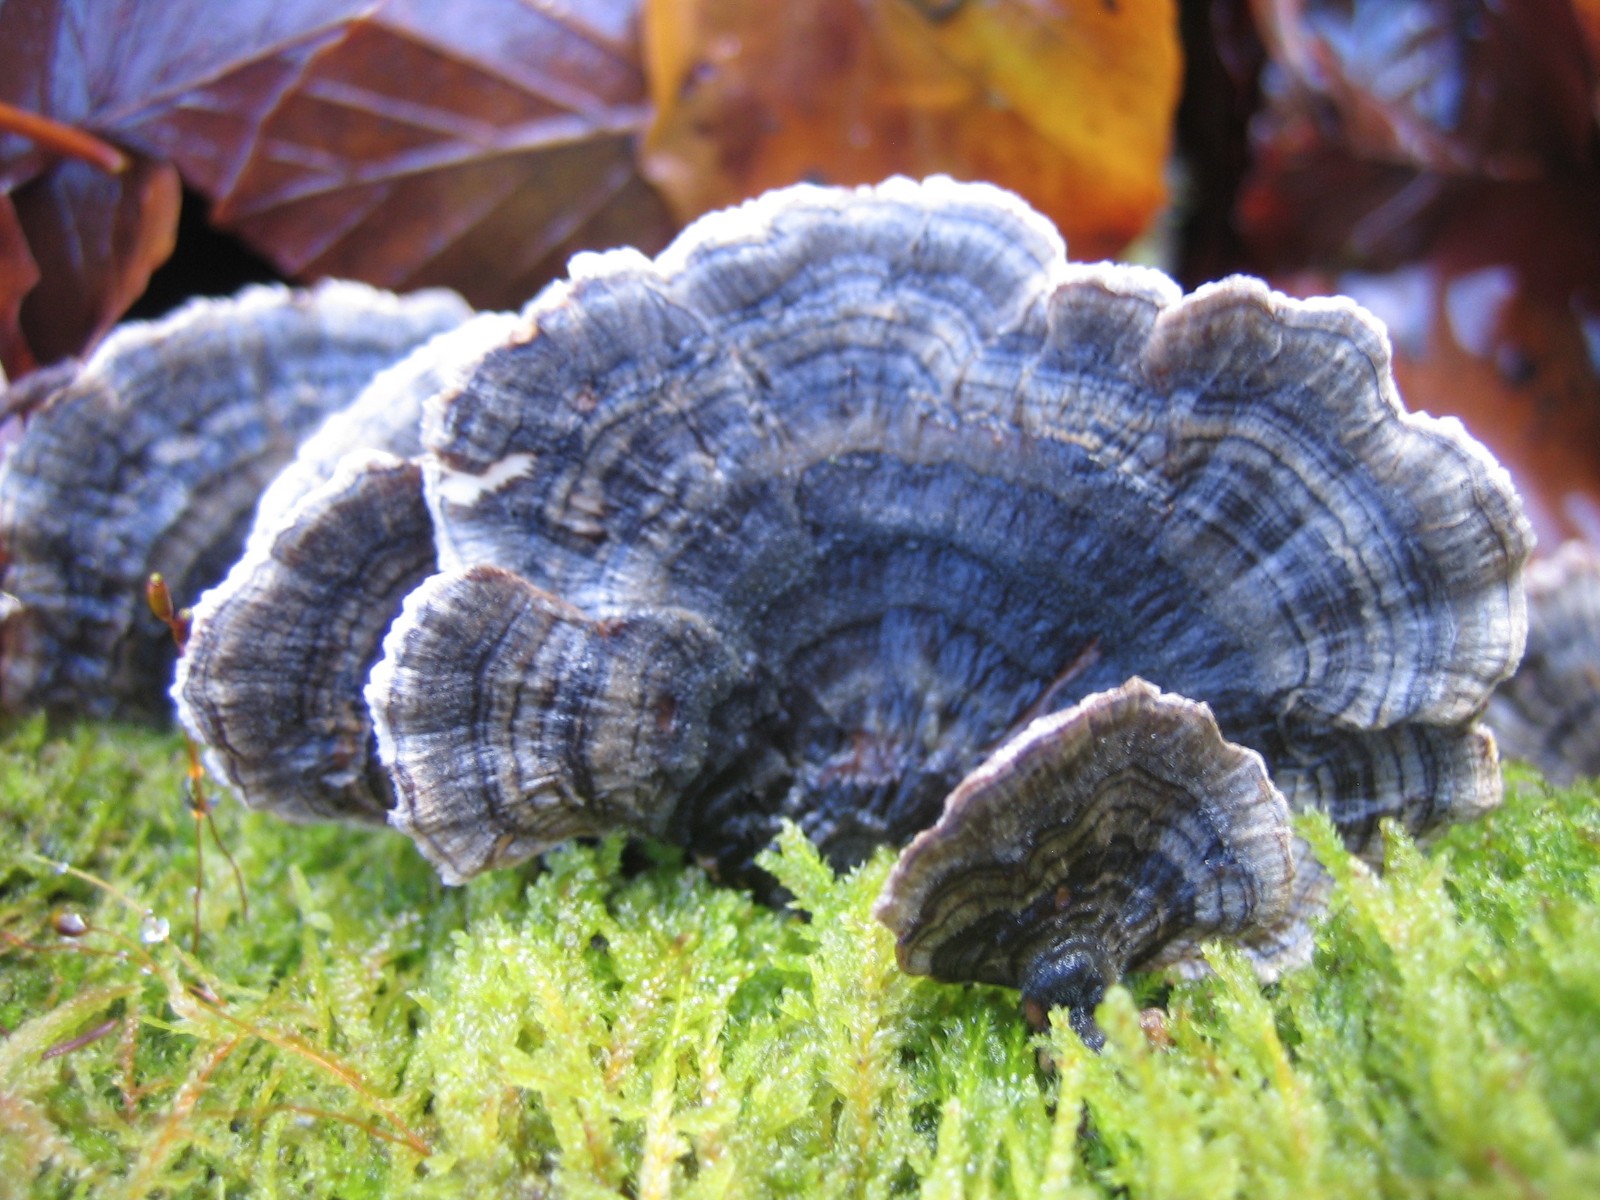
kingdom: Fungi
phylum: Basidiomycota
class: Agaricomycetes
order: Polyporales
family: Polyporaceae
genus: Trametes
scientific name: Trametes versicolor
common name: broget læderporesvamp
